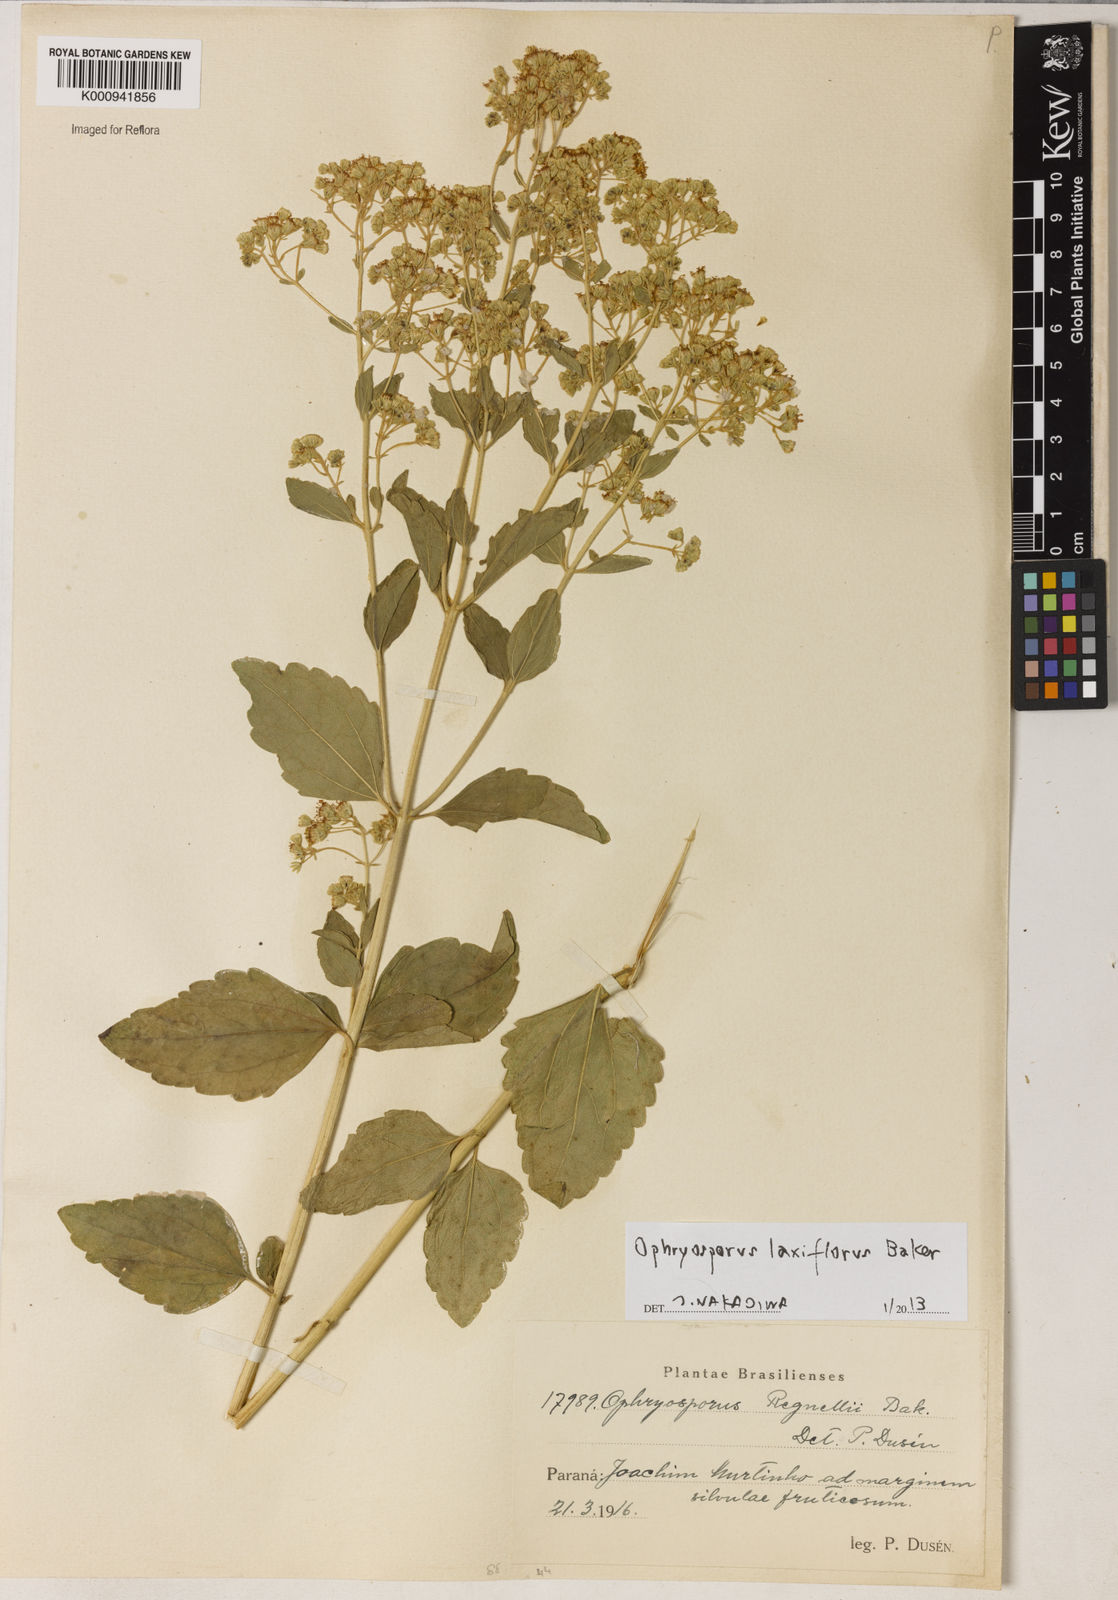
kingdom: Plantae
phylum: Tracheophyta
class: Magnoliopsida
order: Asterales
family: Asteraceae
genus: Ophryosporus
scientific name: Ophryosporus laxiflorus
